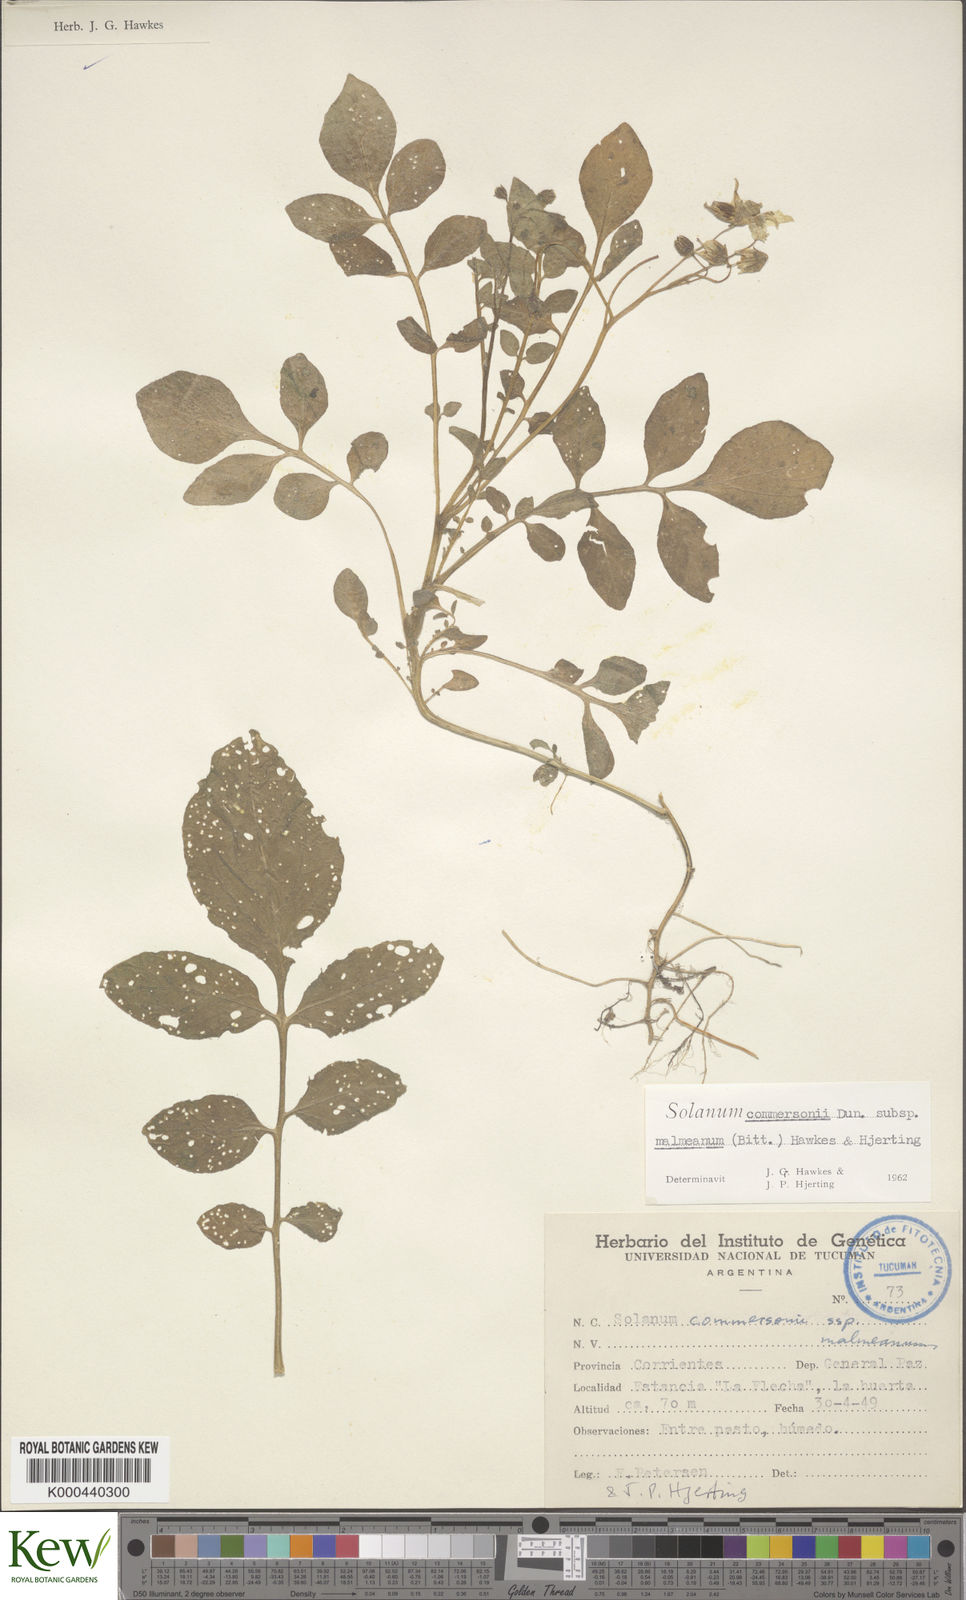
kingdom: Plantae
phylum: Tracheophyta
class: Magnoliopsida
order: Solanales
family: Solanaceae
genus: Solanum
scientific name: Solanum malmeanum
